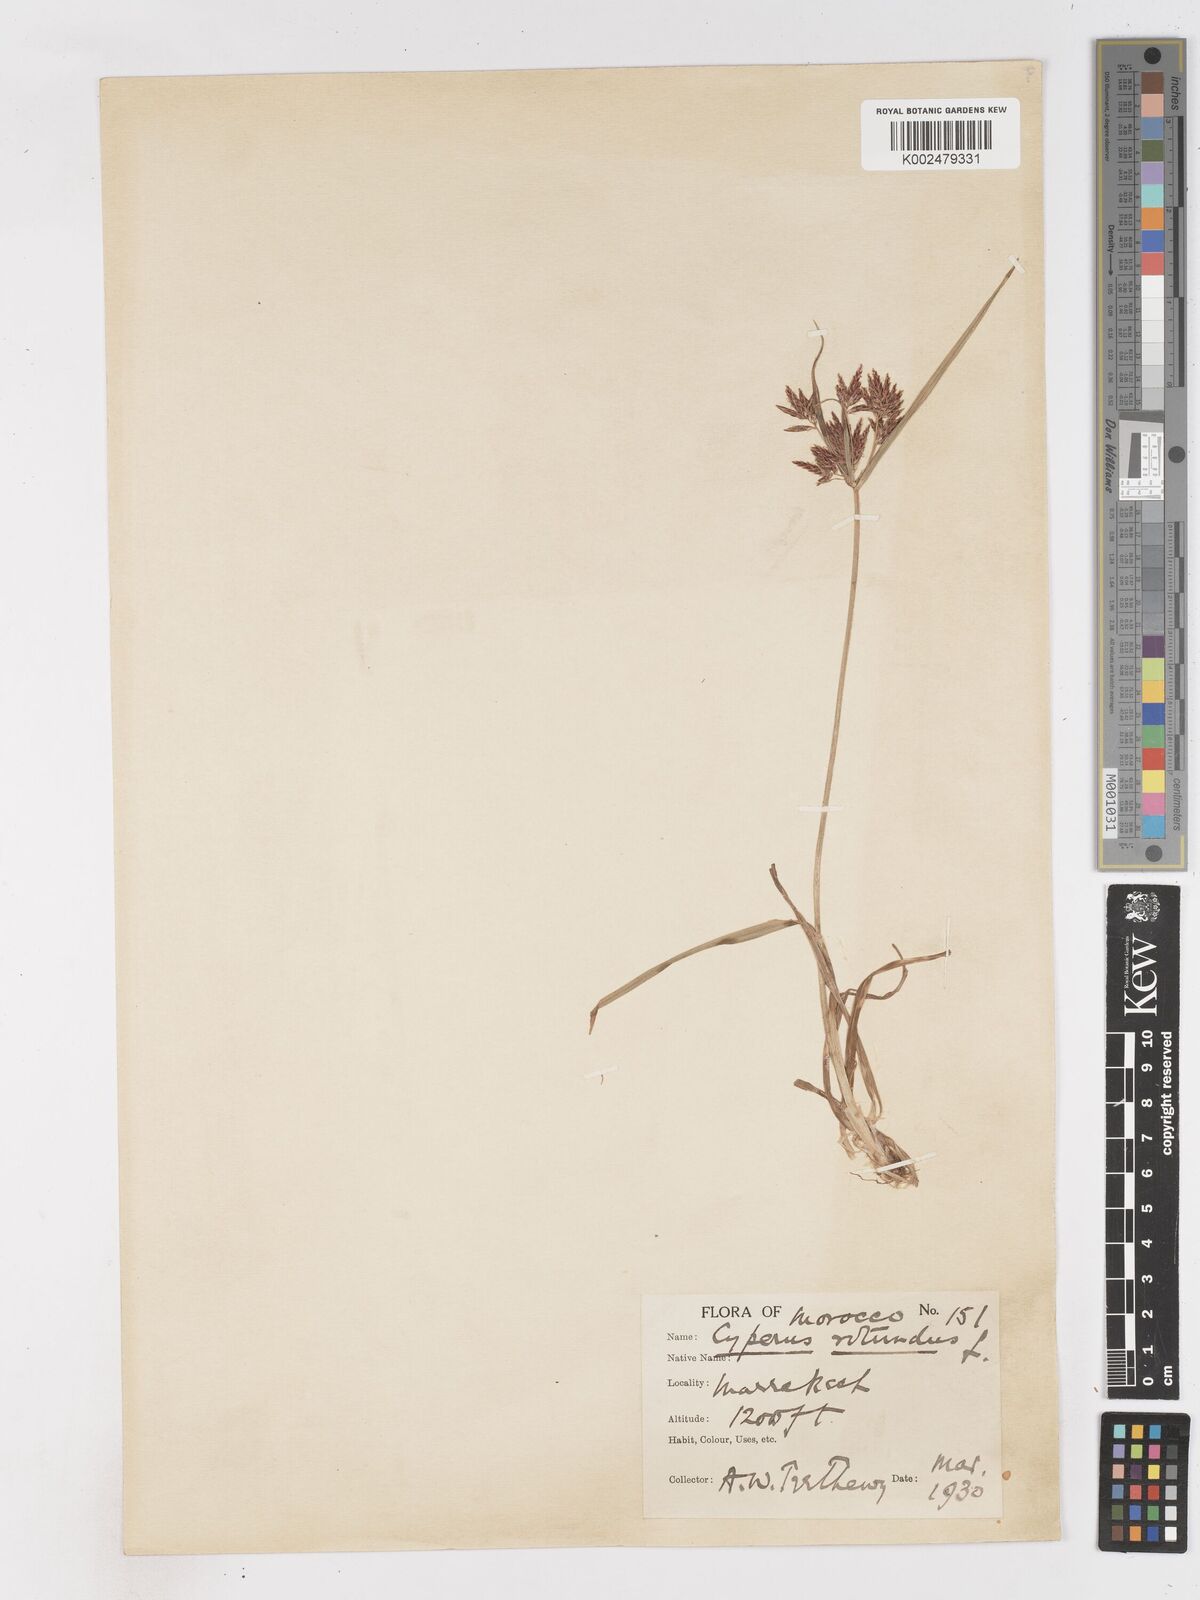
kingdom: Plantae
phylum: Tracheophyta
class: Liliopsida
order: Poales
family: Cyperaceae
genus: Cyperus
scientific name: Cyperus rotundus
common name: Nutgrass
